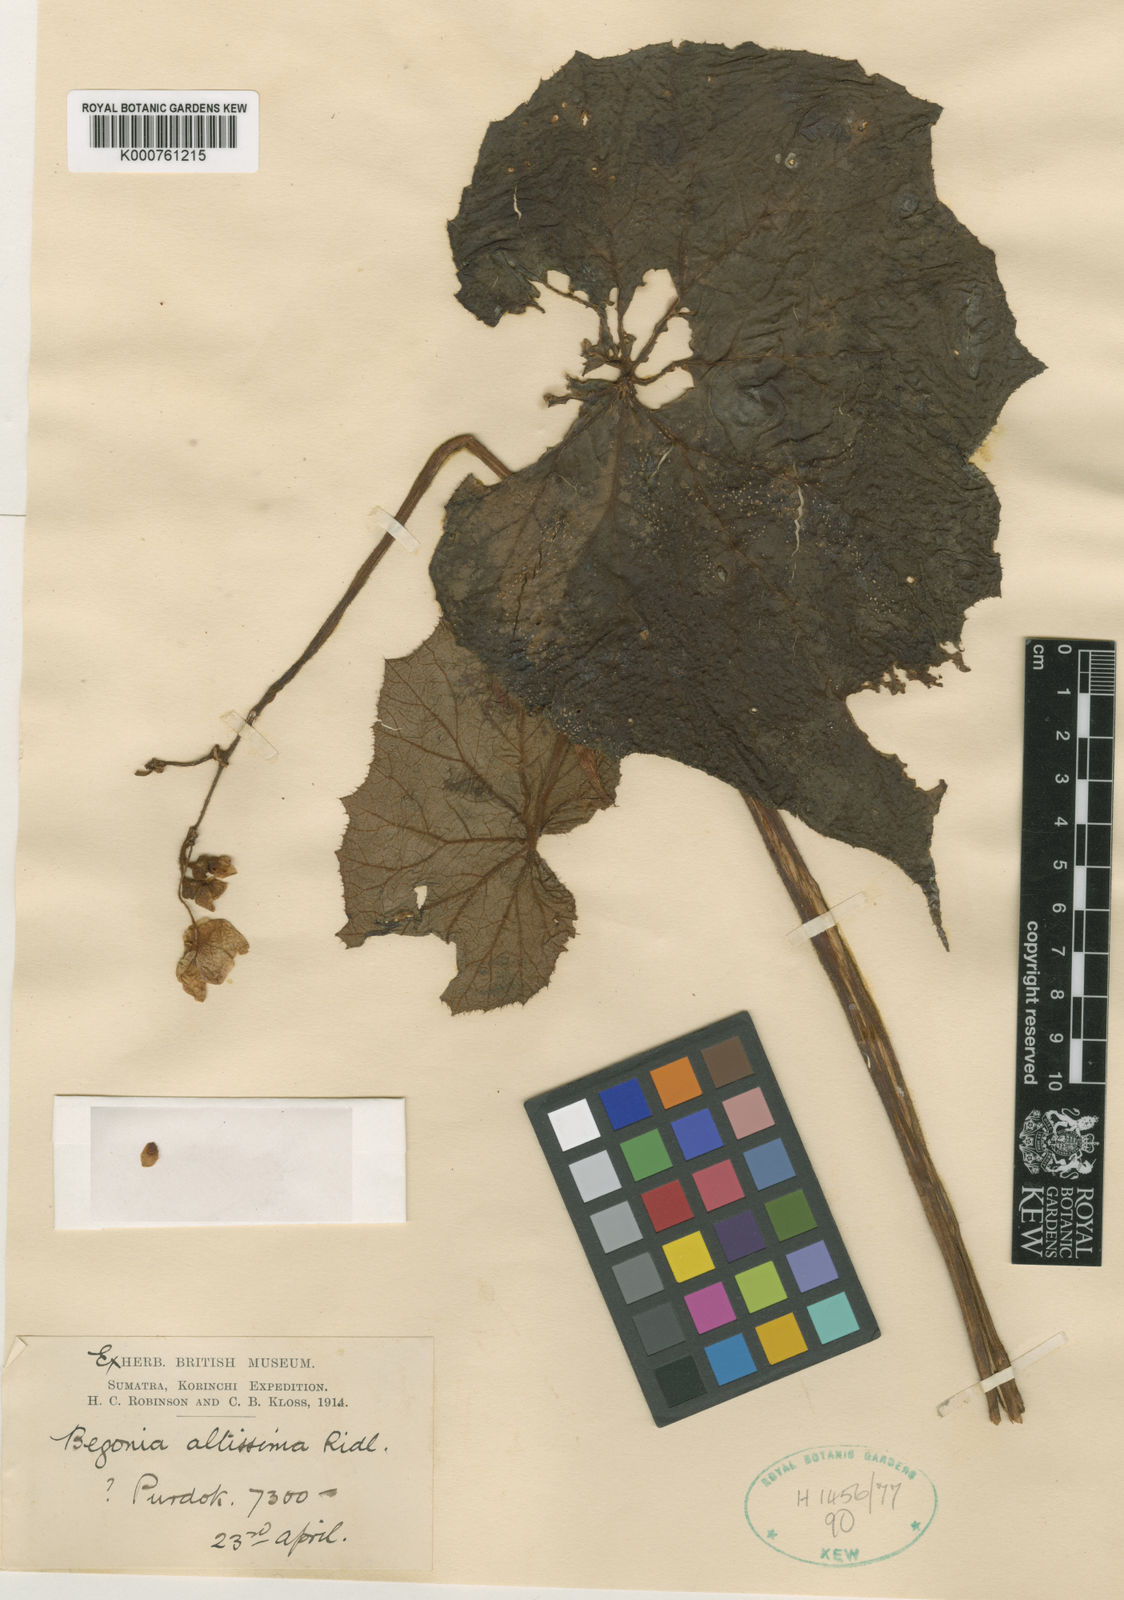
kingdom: Plantae
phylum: Tracheophyta
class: Magnoliopsida
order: Cucurbitales
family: Begoniaceae
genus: Begonia
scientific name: Begonia altissima
